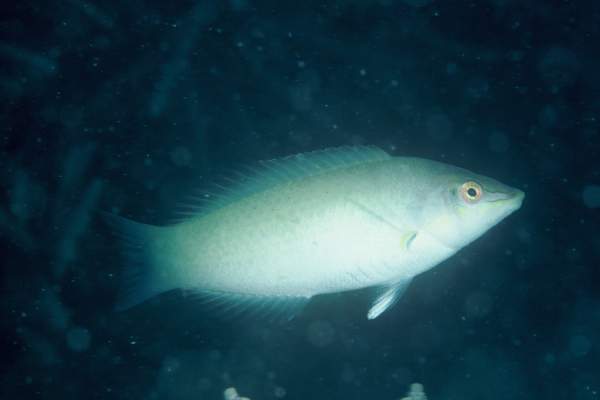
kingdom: Animalia
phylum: Chordata
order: Perciformes
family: Labridae
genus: Halichoeres
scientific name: Halichoeres chloropterus
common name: Pastel-green wrasse
